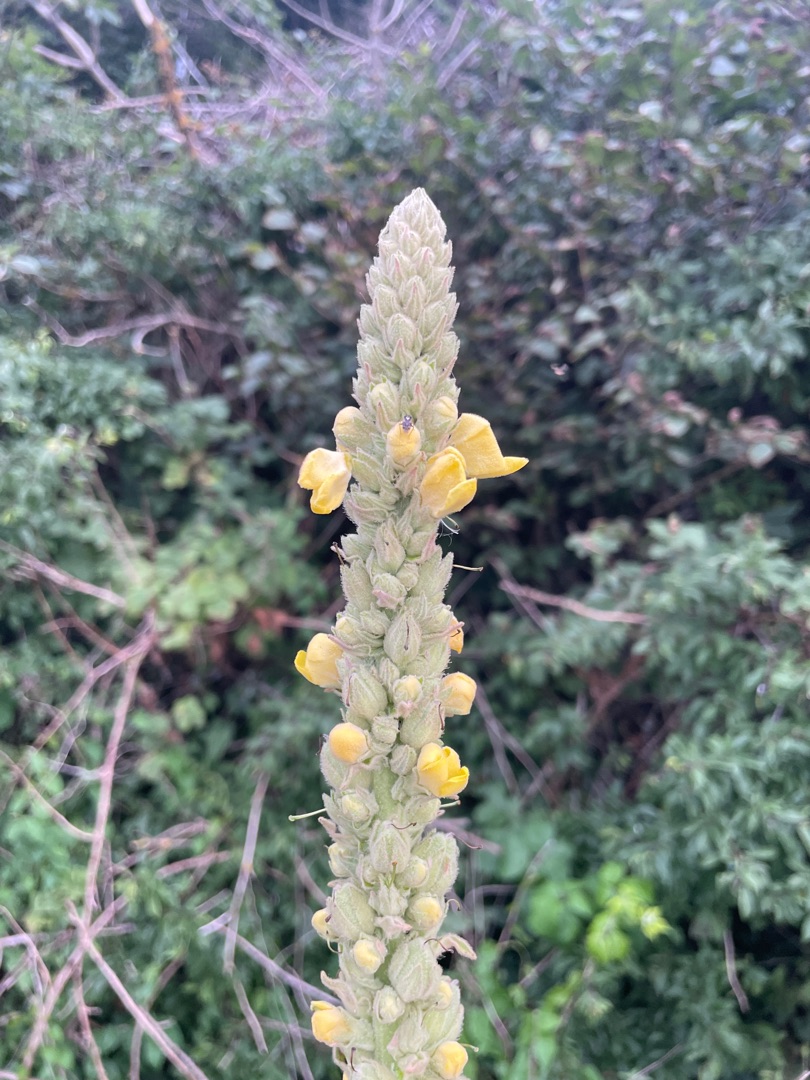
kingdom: Plantae
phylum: Tracheophyta
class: Magnoliopsida
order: Lamiales
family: Scrophulariaceae
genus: Verbascum
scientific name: Verbascum thapsus
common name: Filtbladet kongelys
